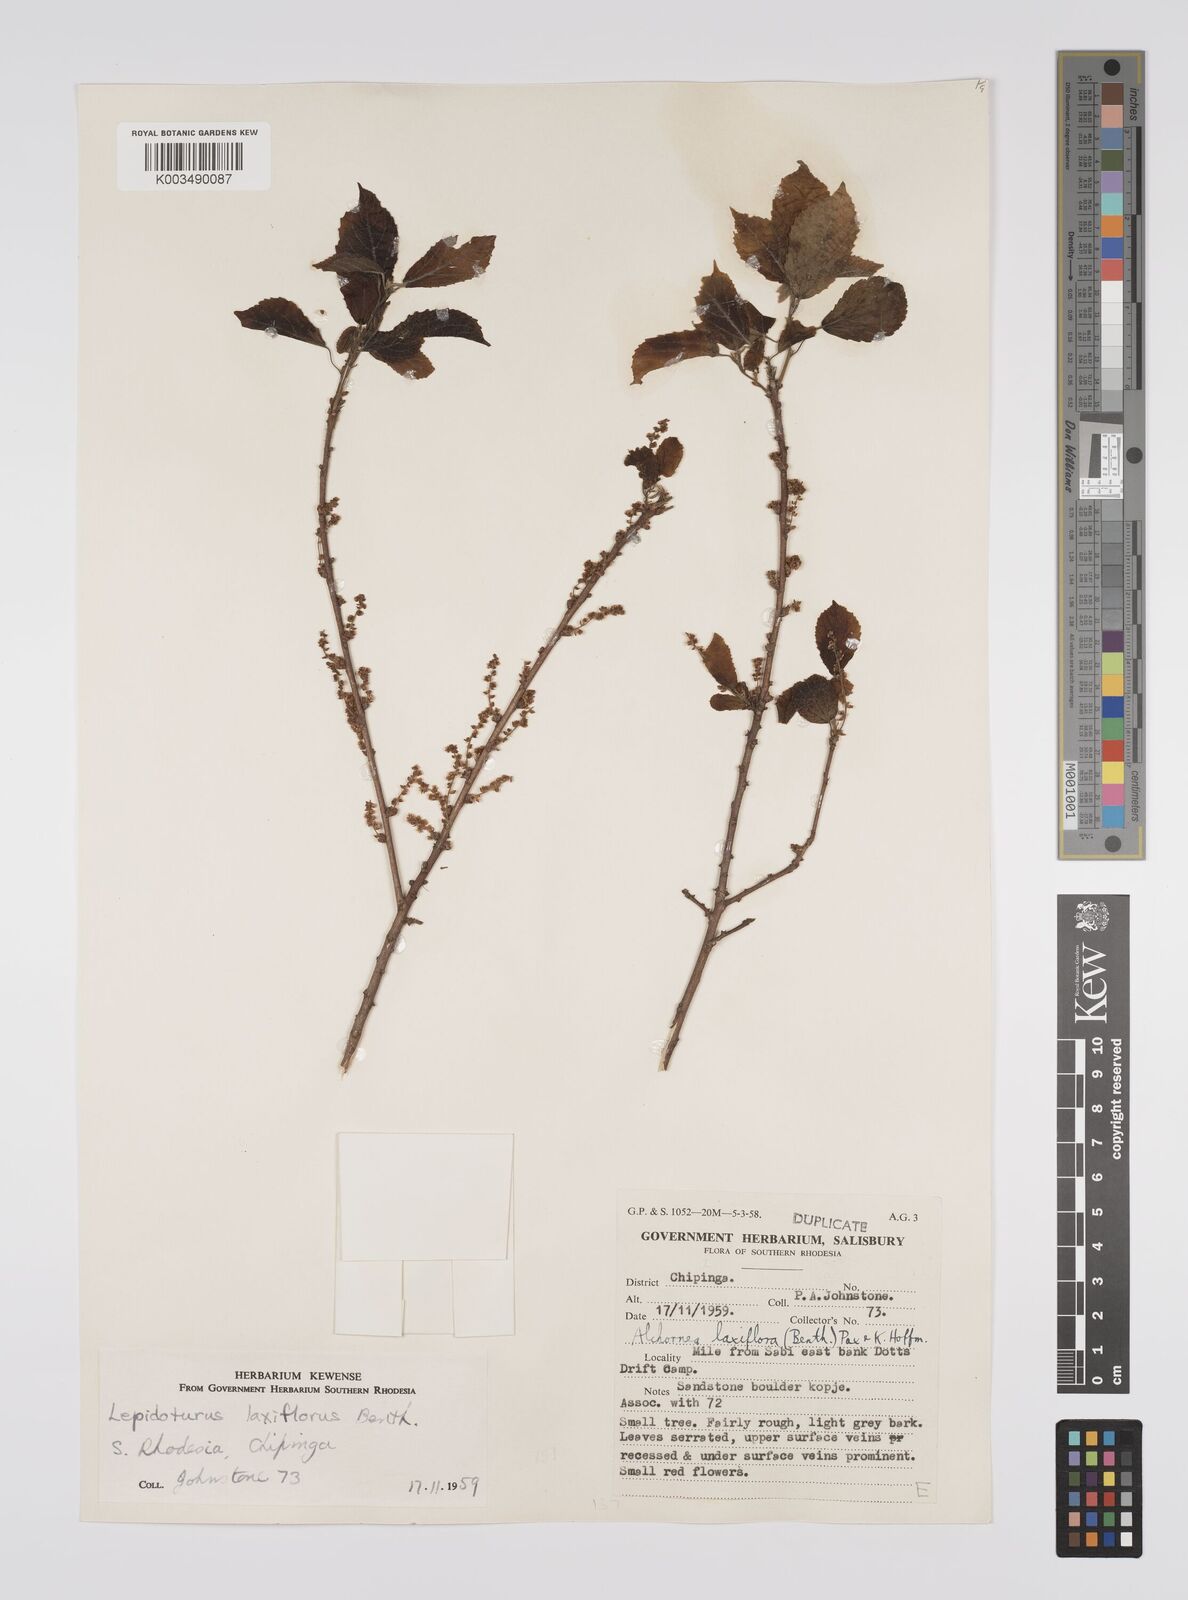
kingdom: Plantae
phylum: Tracheophyta
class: Magnoliopsida
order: Malpighiales
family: Euphorbiaceae
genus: Alchornea
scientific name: Alchornea laxiflora
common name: Lowveld bead-string
